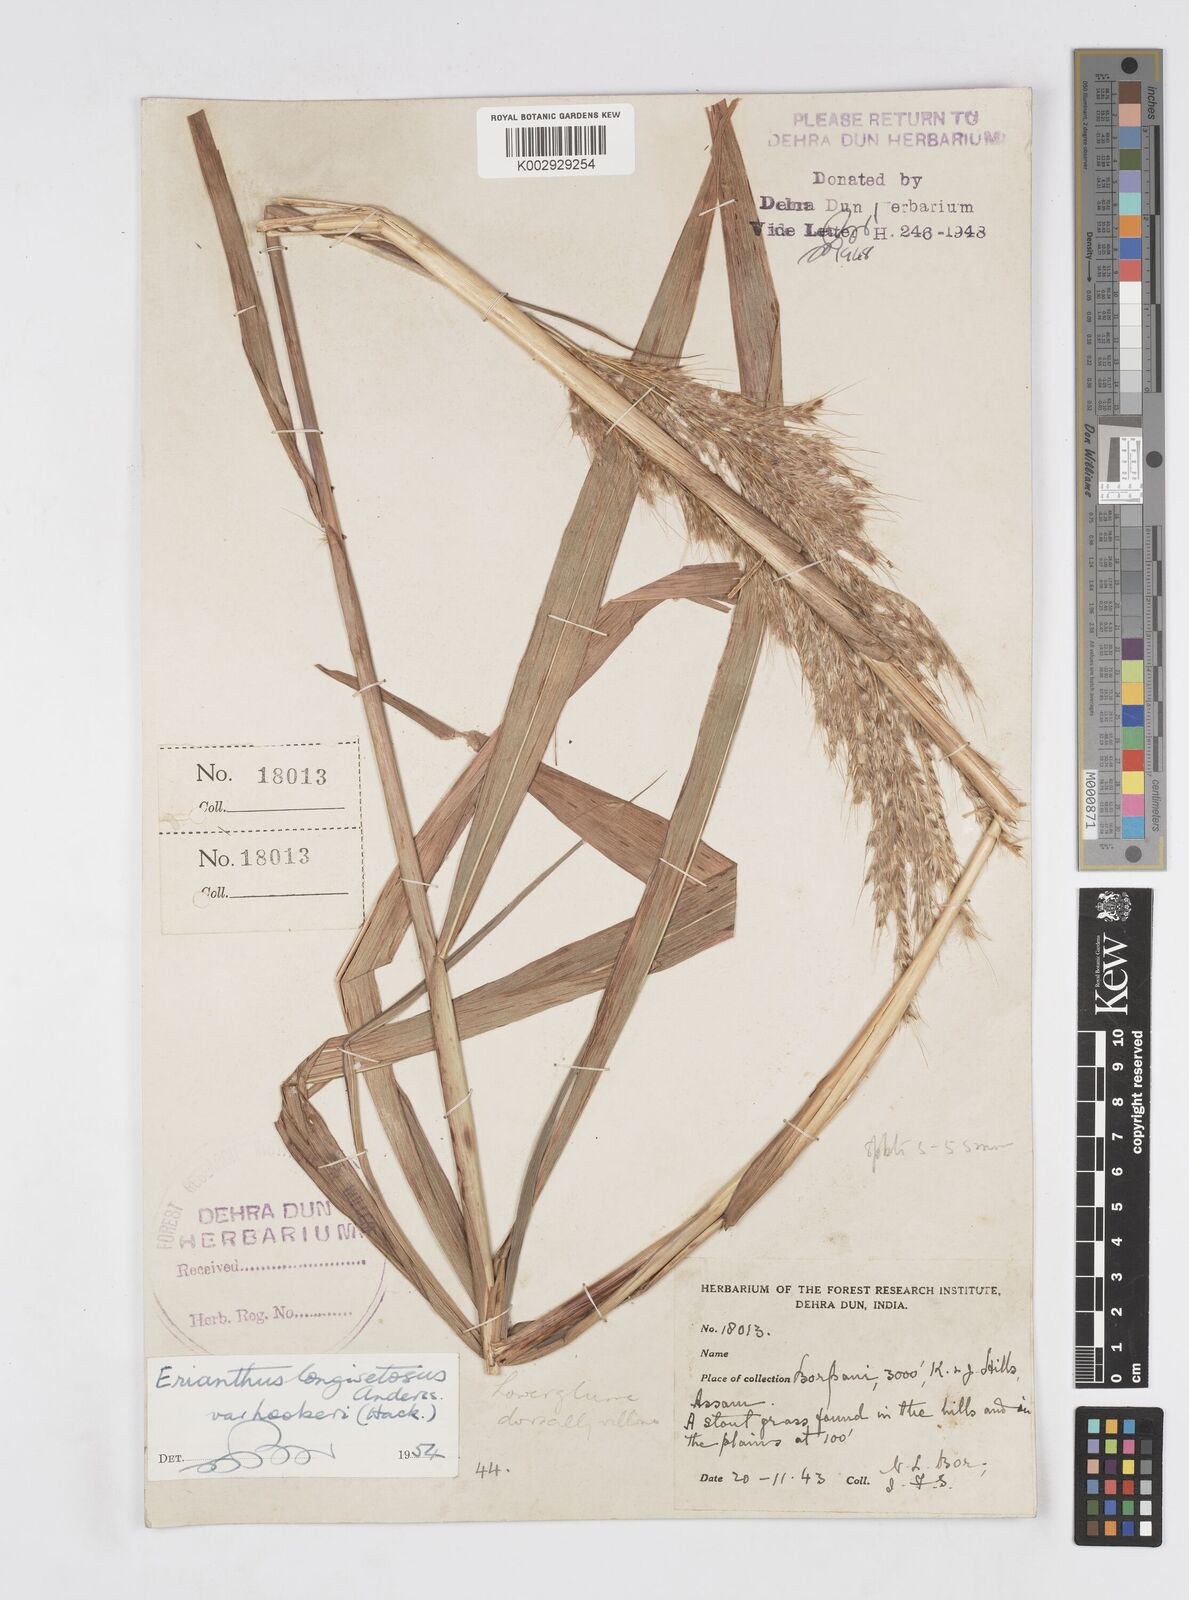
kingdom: Plantae
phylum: Tracheophyta
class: Liliopsida
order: Poales
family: Poaceae
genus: Saccharum
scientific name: Saccharum longesetosum
